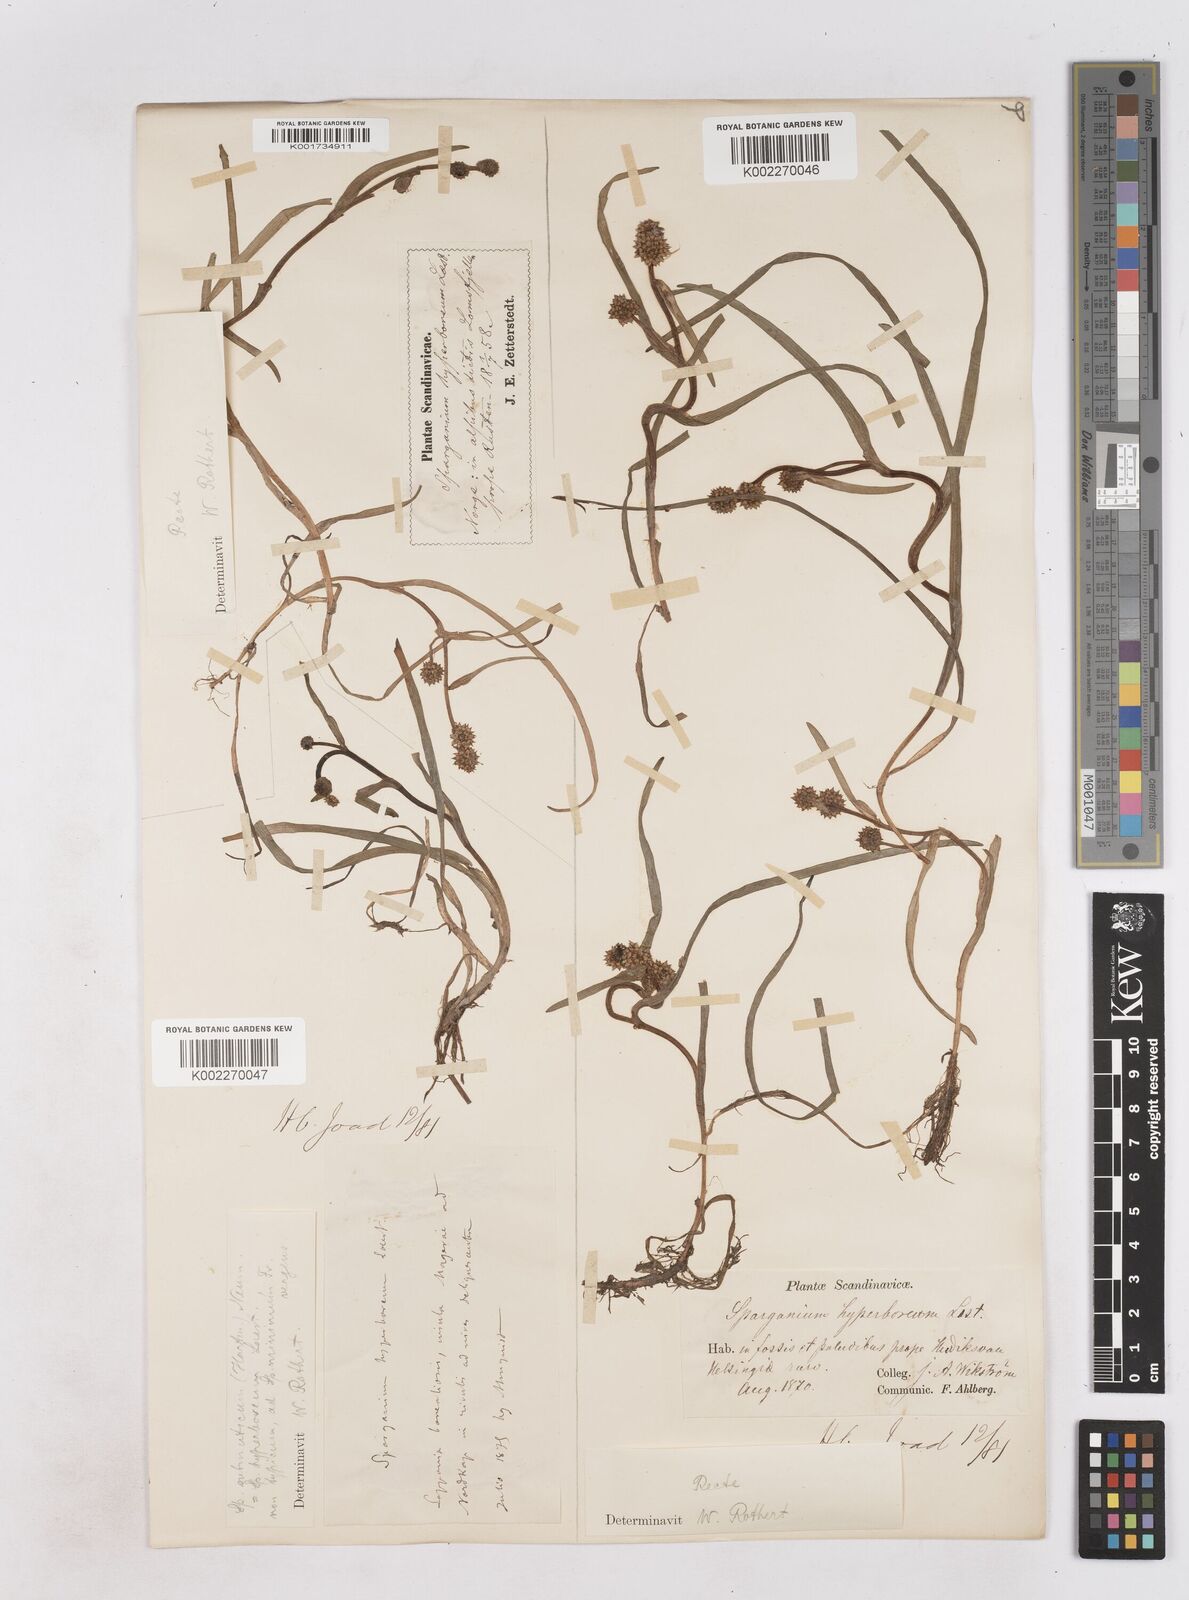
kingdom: Plantae
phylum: Tracheophyta
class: Liliopsida
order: Poales
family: Typhaceae
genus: Sparganium
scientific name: Sparganium hyperboreum
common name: Arctic burreed
